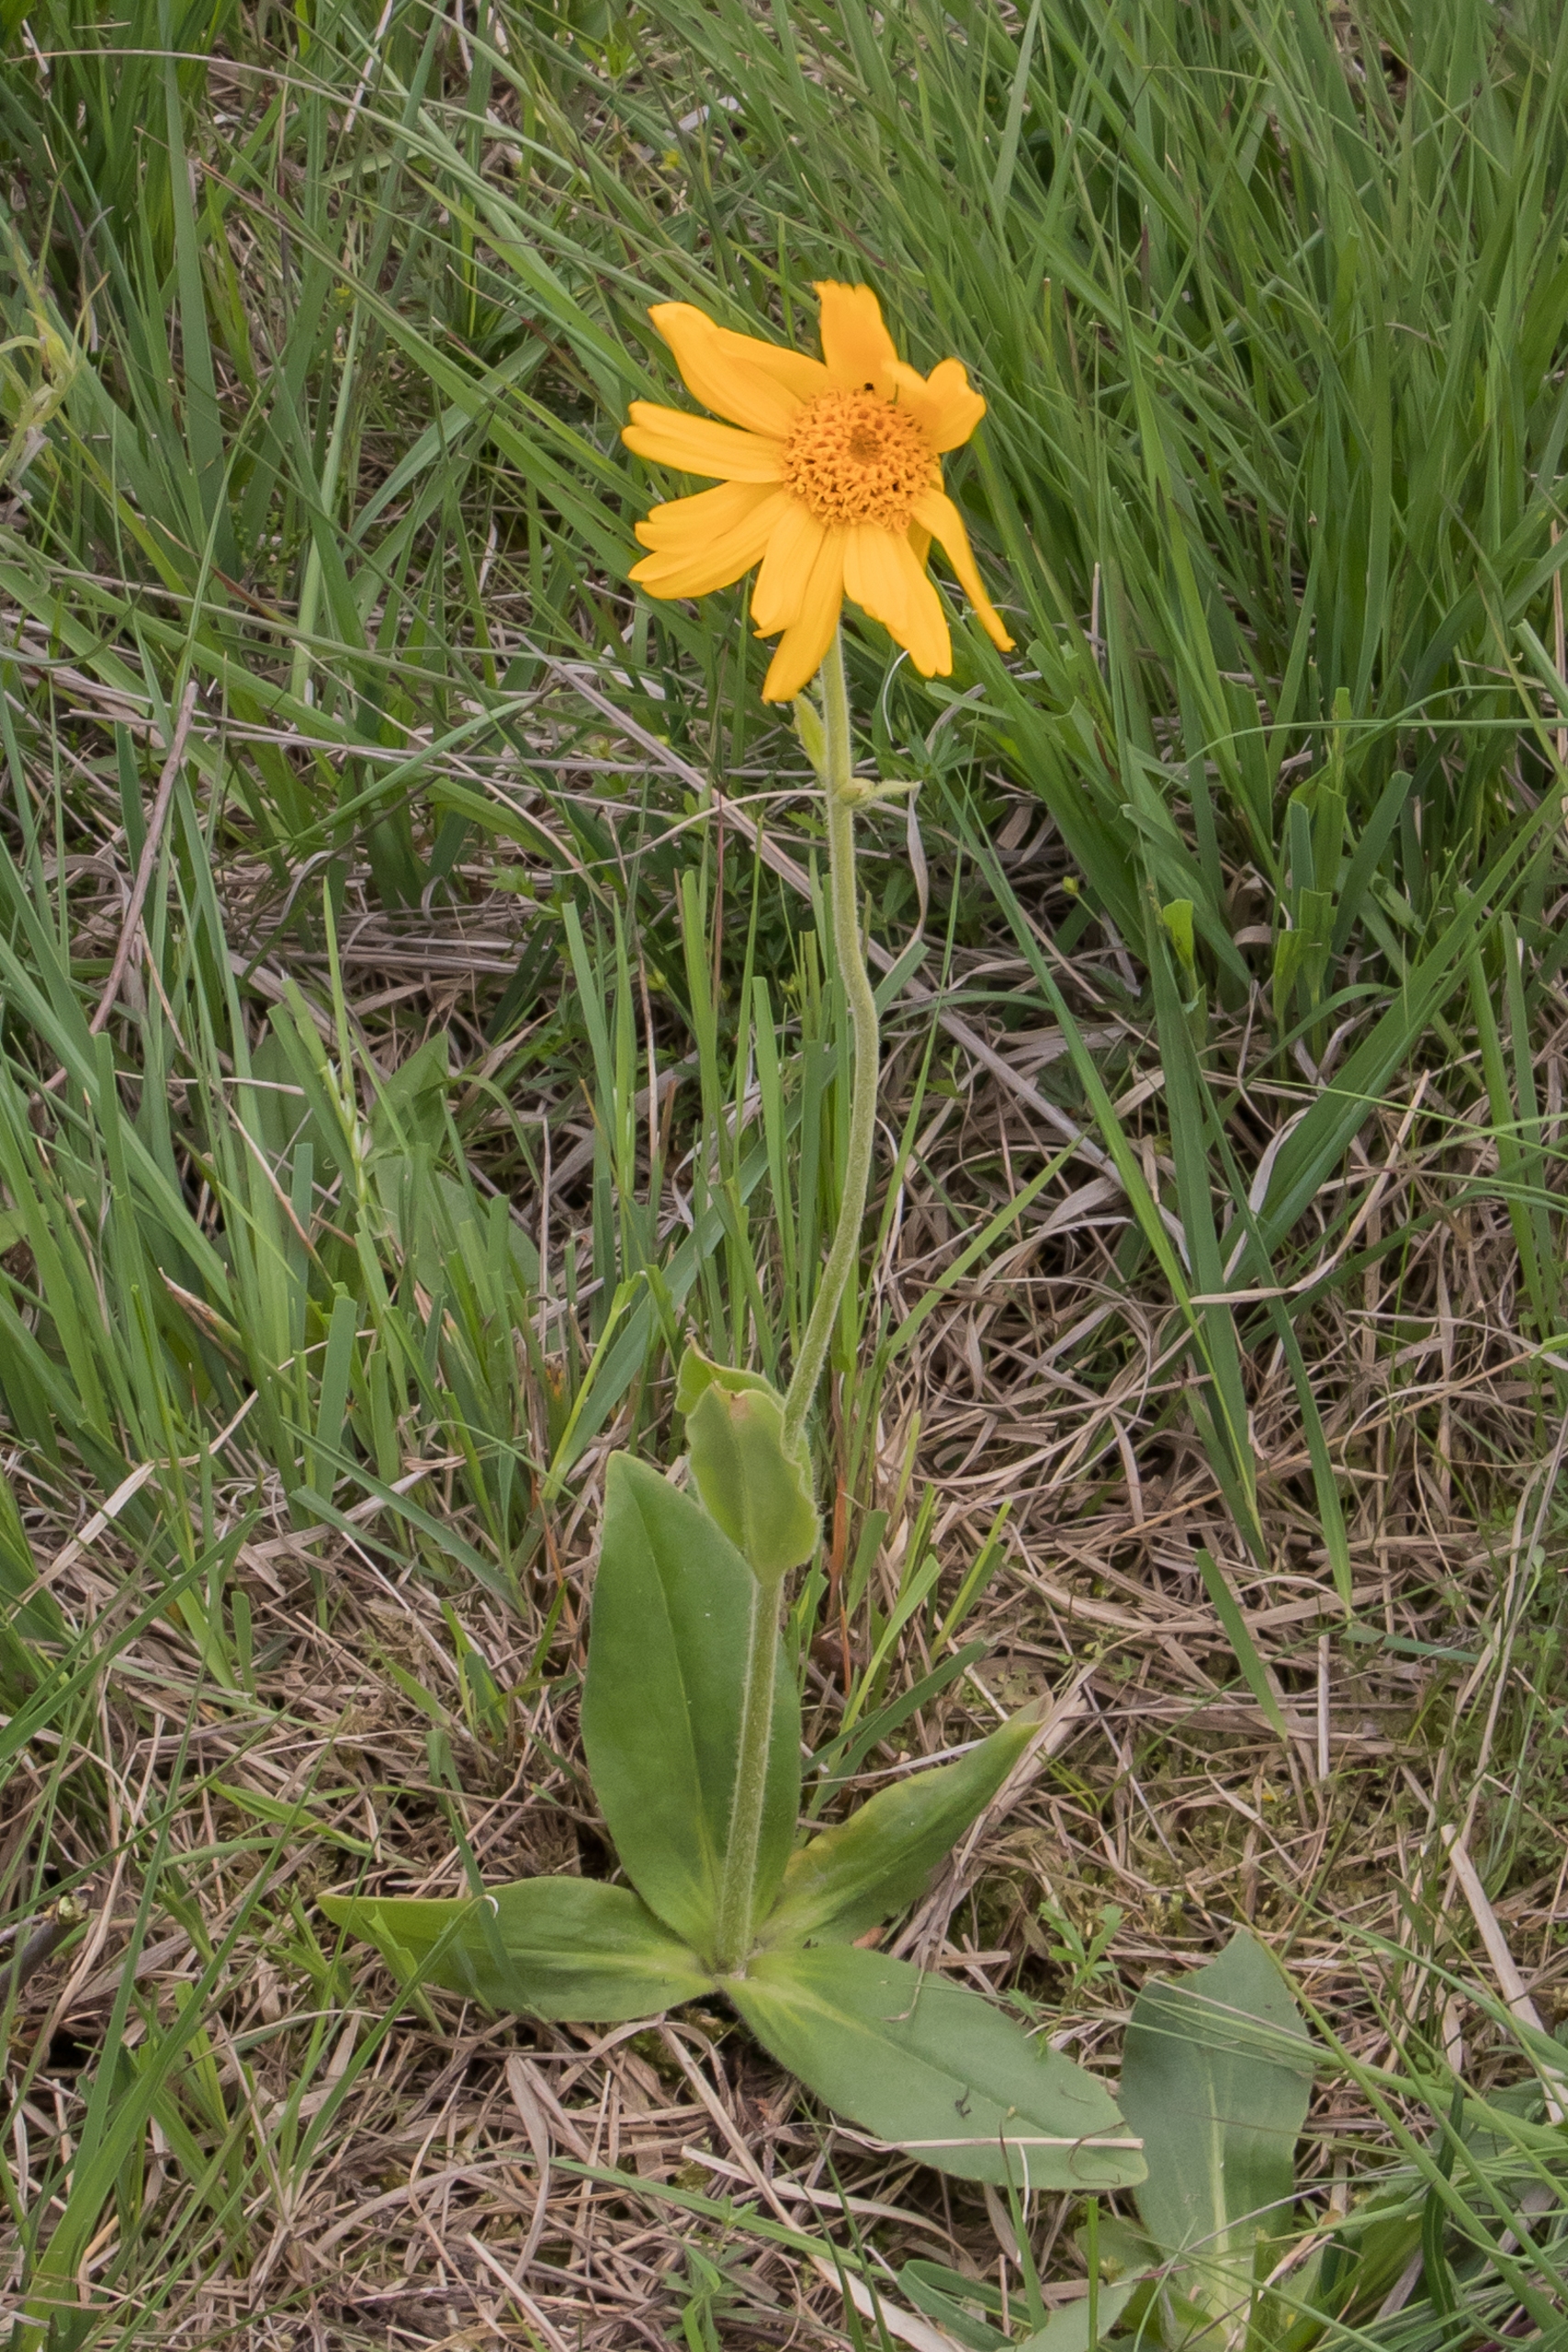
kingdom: Plantae
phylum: Tracheophyta
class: Magnoliopsida
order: Asterales
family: Asteraceae
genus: Arnica
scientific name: Arnica montana
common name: Guldblomme
